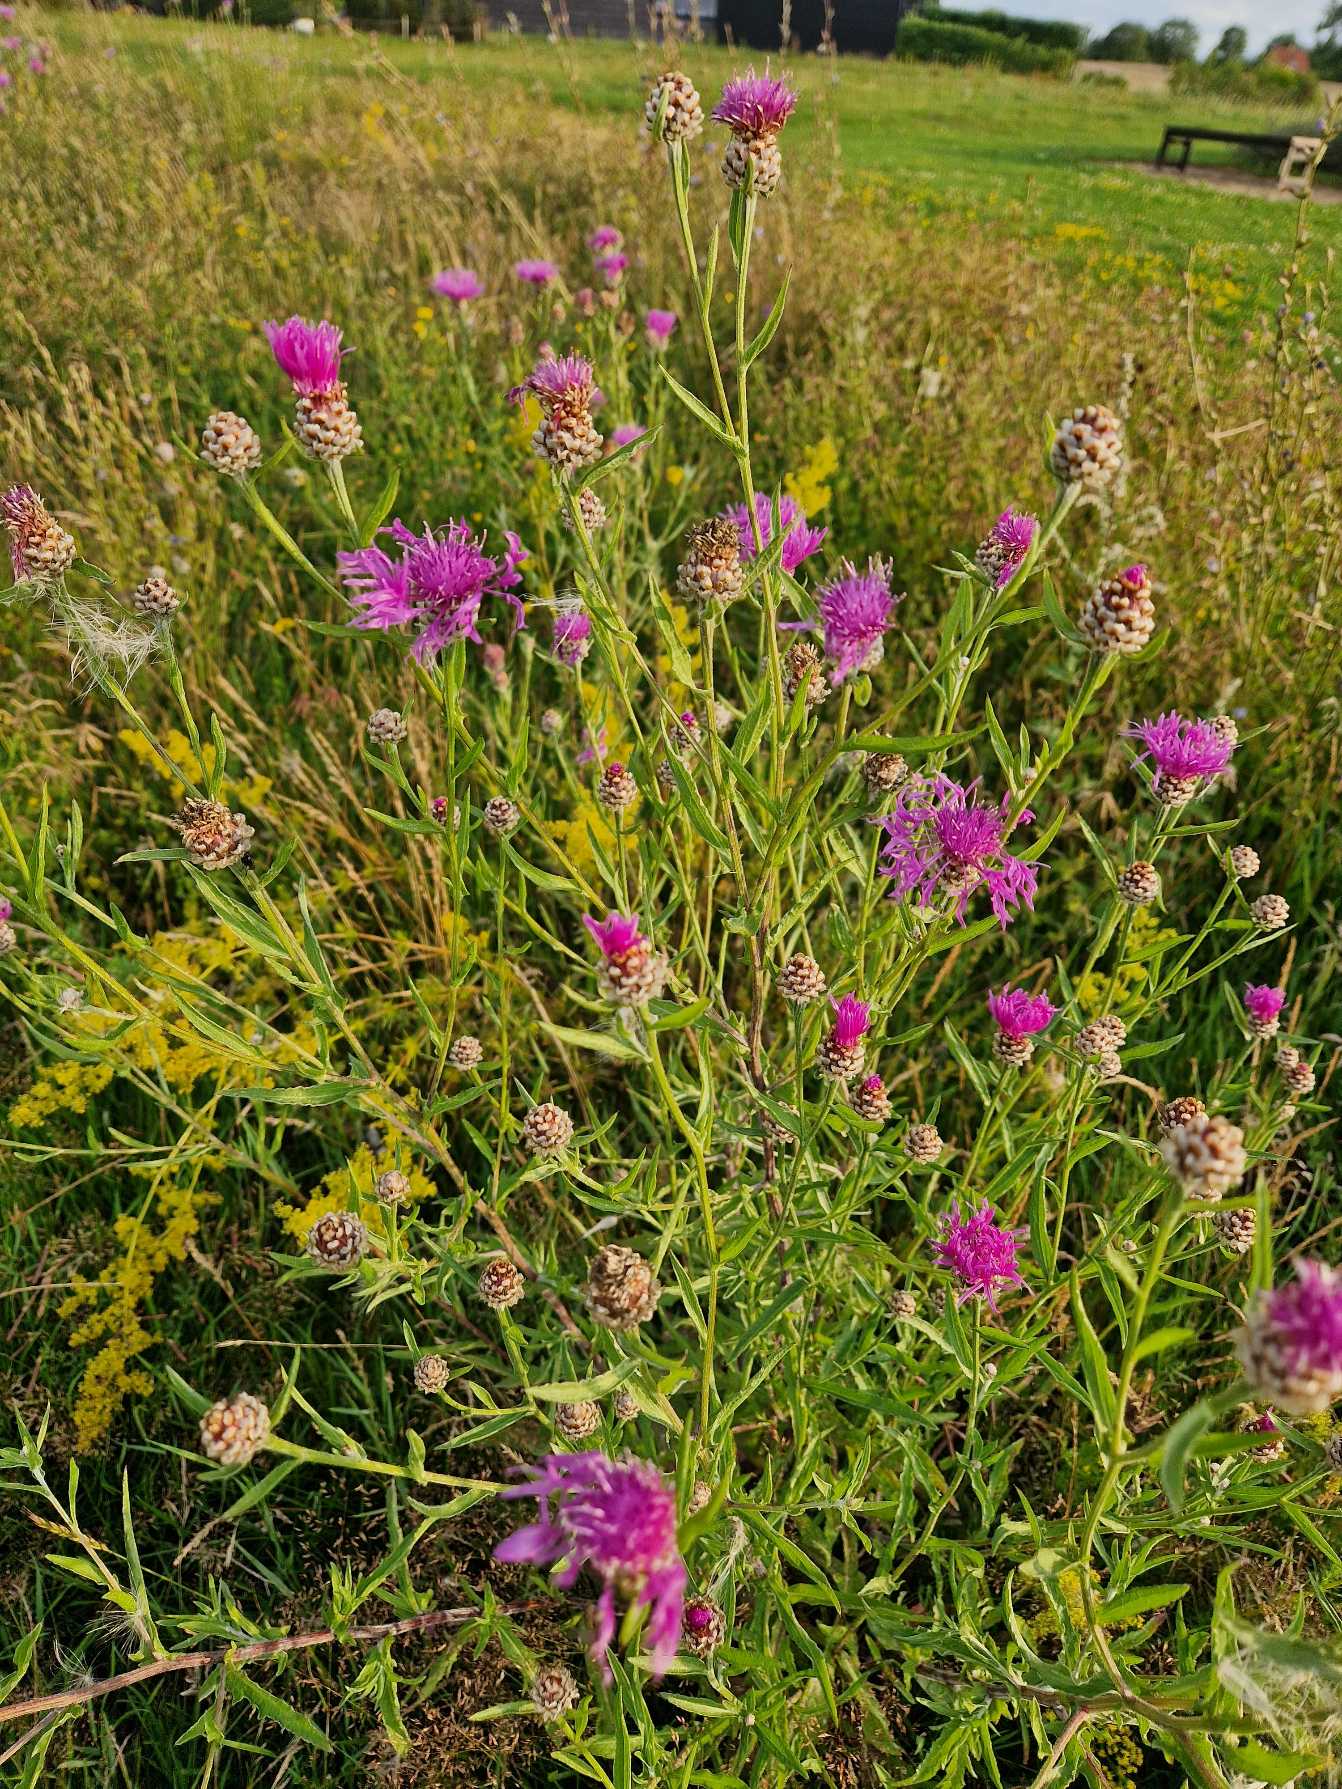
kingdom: Plantae
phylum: Tracheophyta
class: Magnoliopsida
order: Asterales
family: Asteraceae
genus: Centaurea
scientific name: Centaurea jacea
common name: Almindelig knopurt
